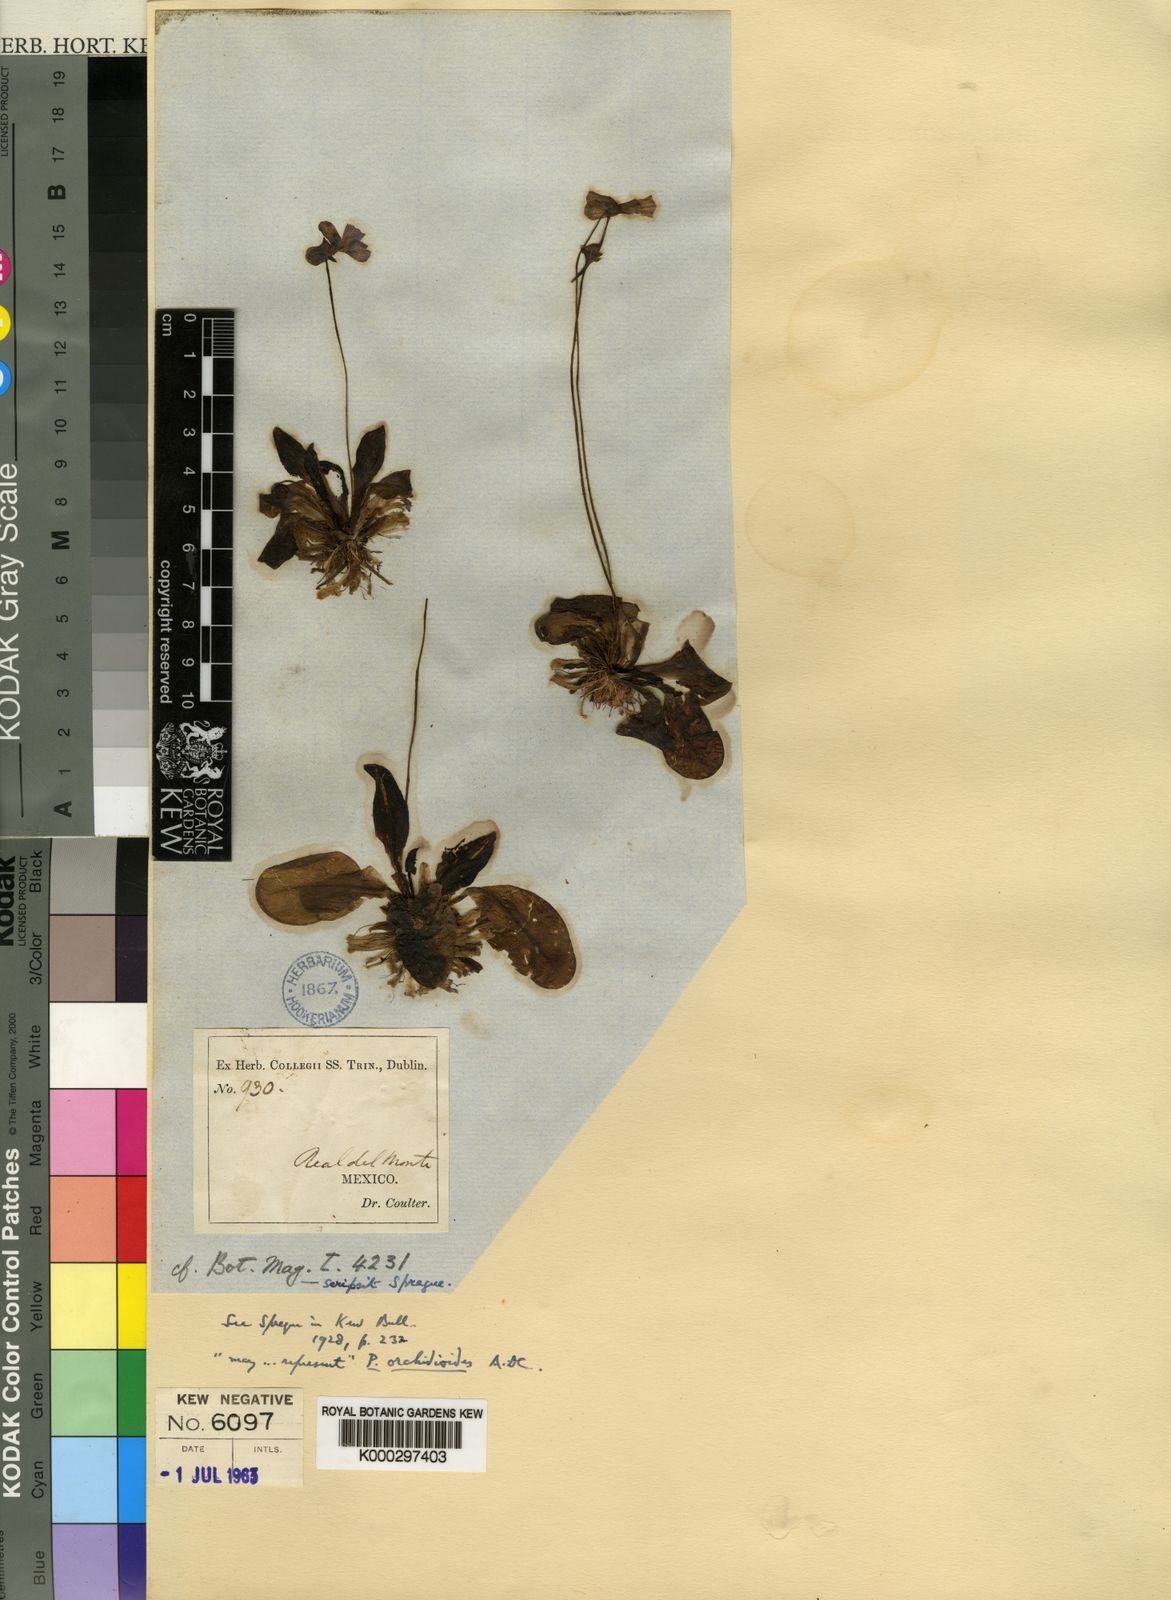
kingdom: Plantae
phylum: Tracheophyta
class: Magnoliopsida
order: Lamiales
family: Lentibulariaceae
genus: Pinguicula
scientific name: Pinguicula moranensis
